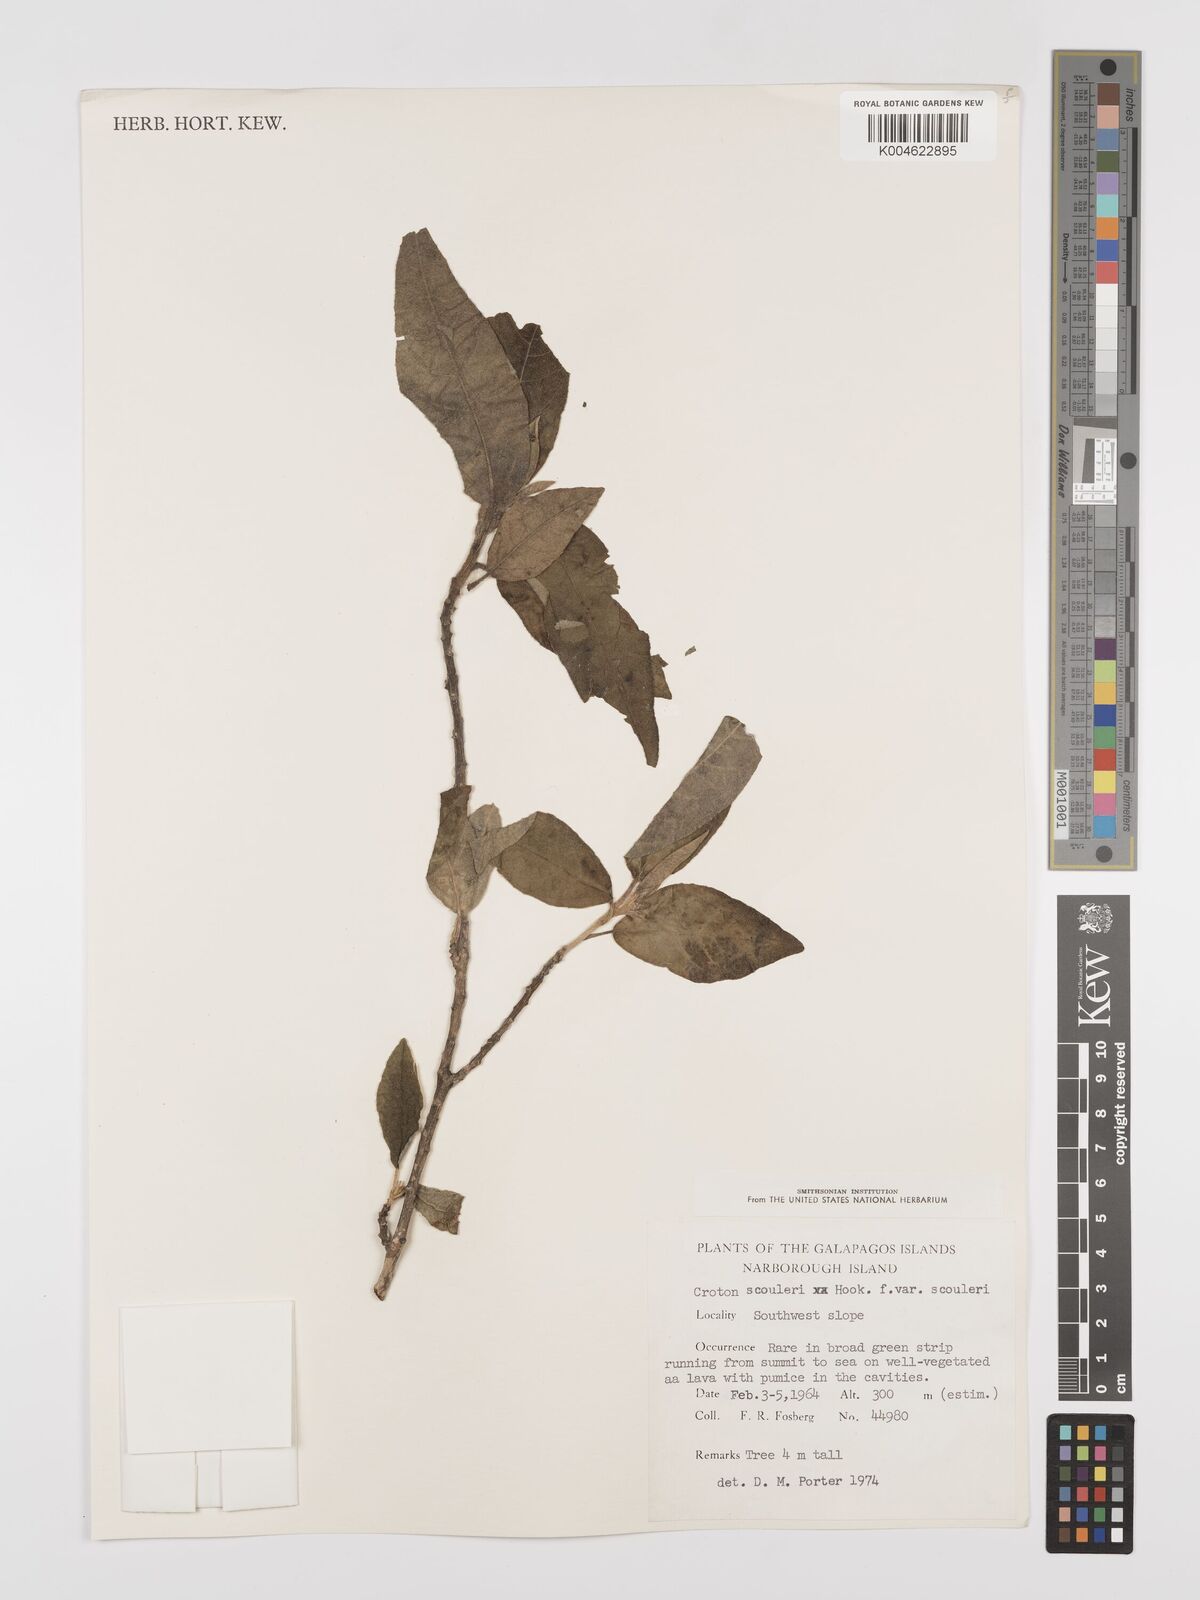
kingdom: Plantae
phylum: Tracheophyta
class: Magnoliopsida
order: Malpighiales
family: Euphorbiaceae
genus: Croton
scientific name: Croton scouleri
